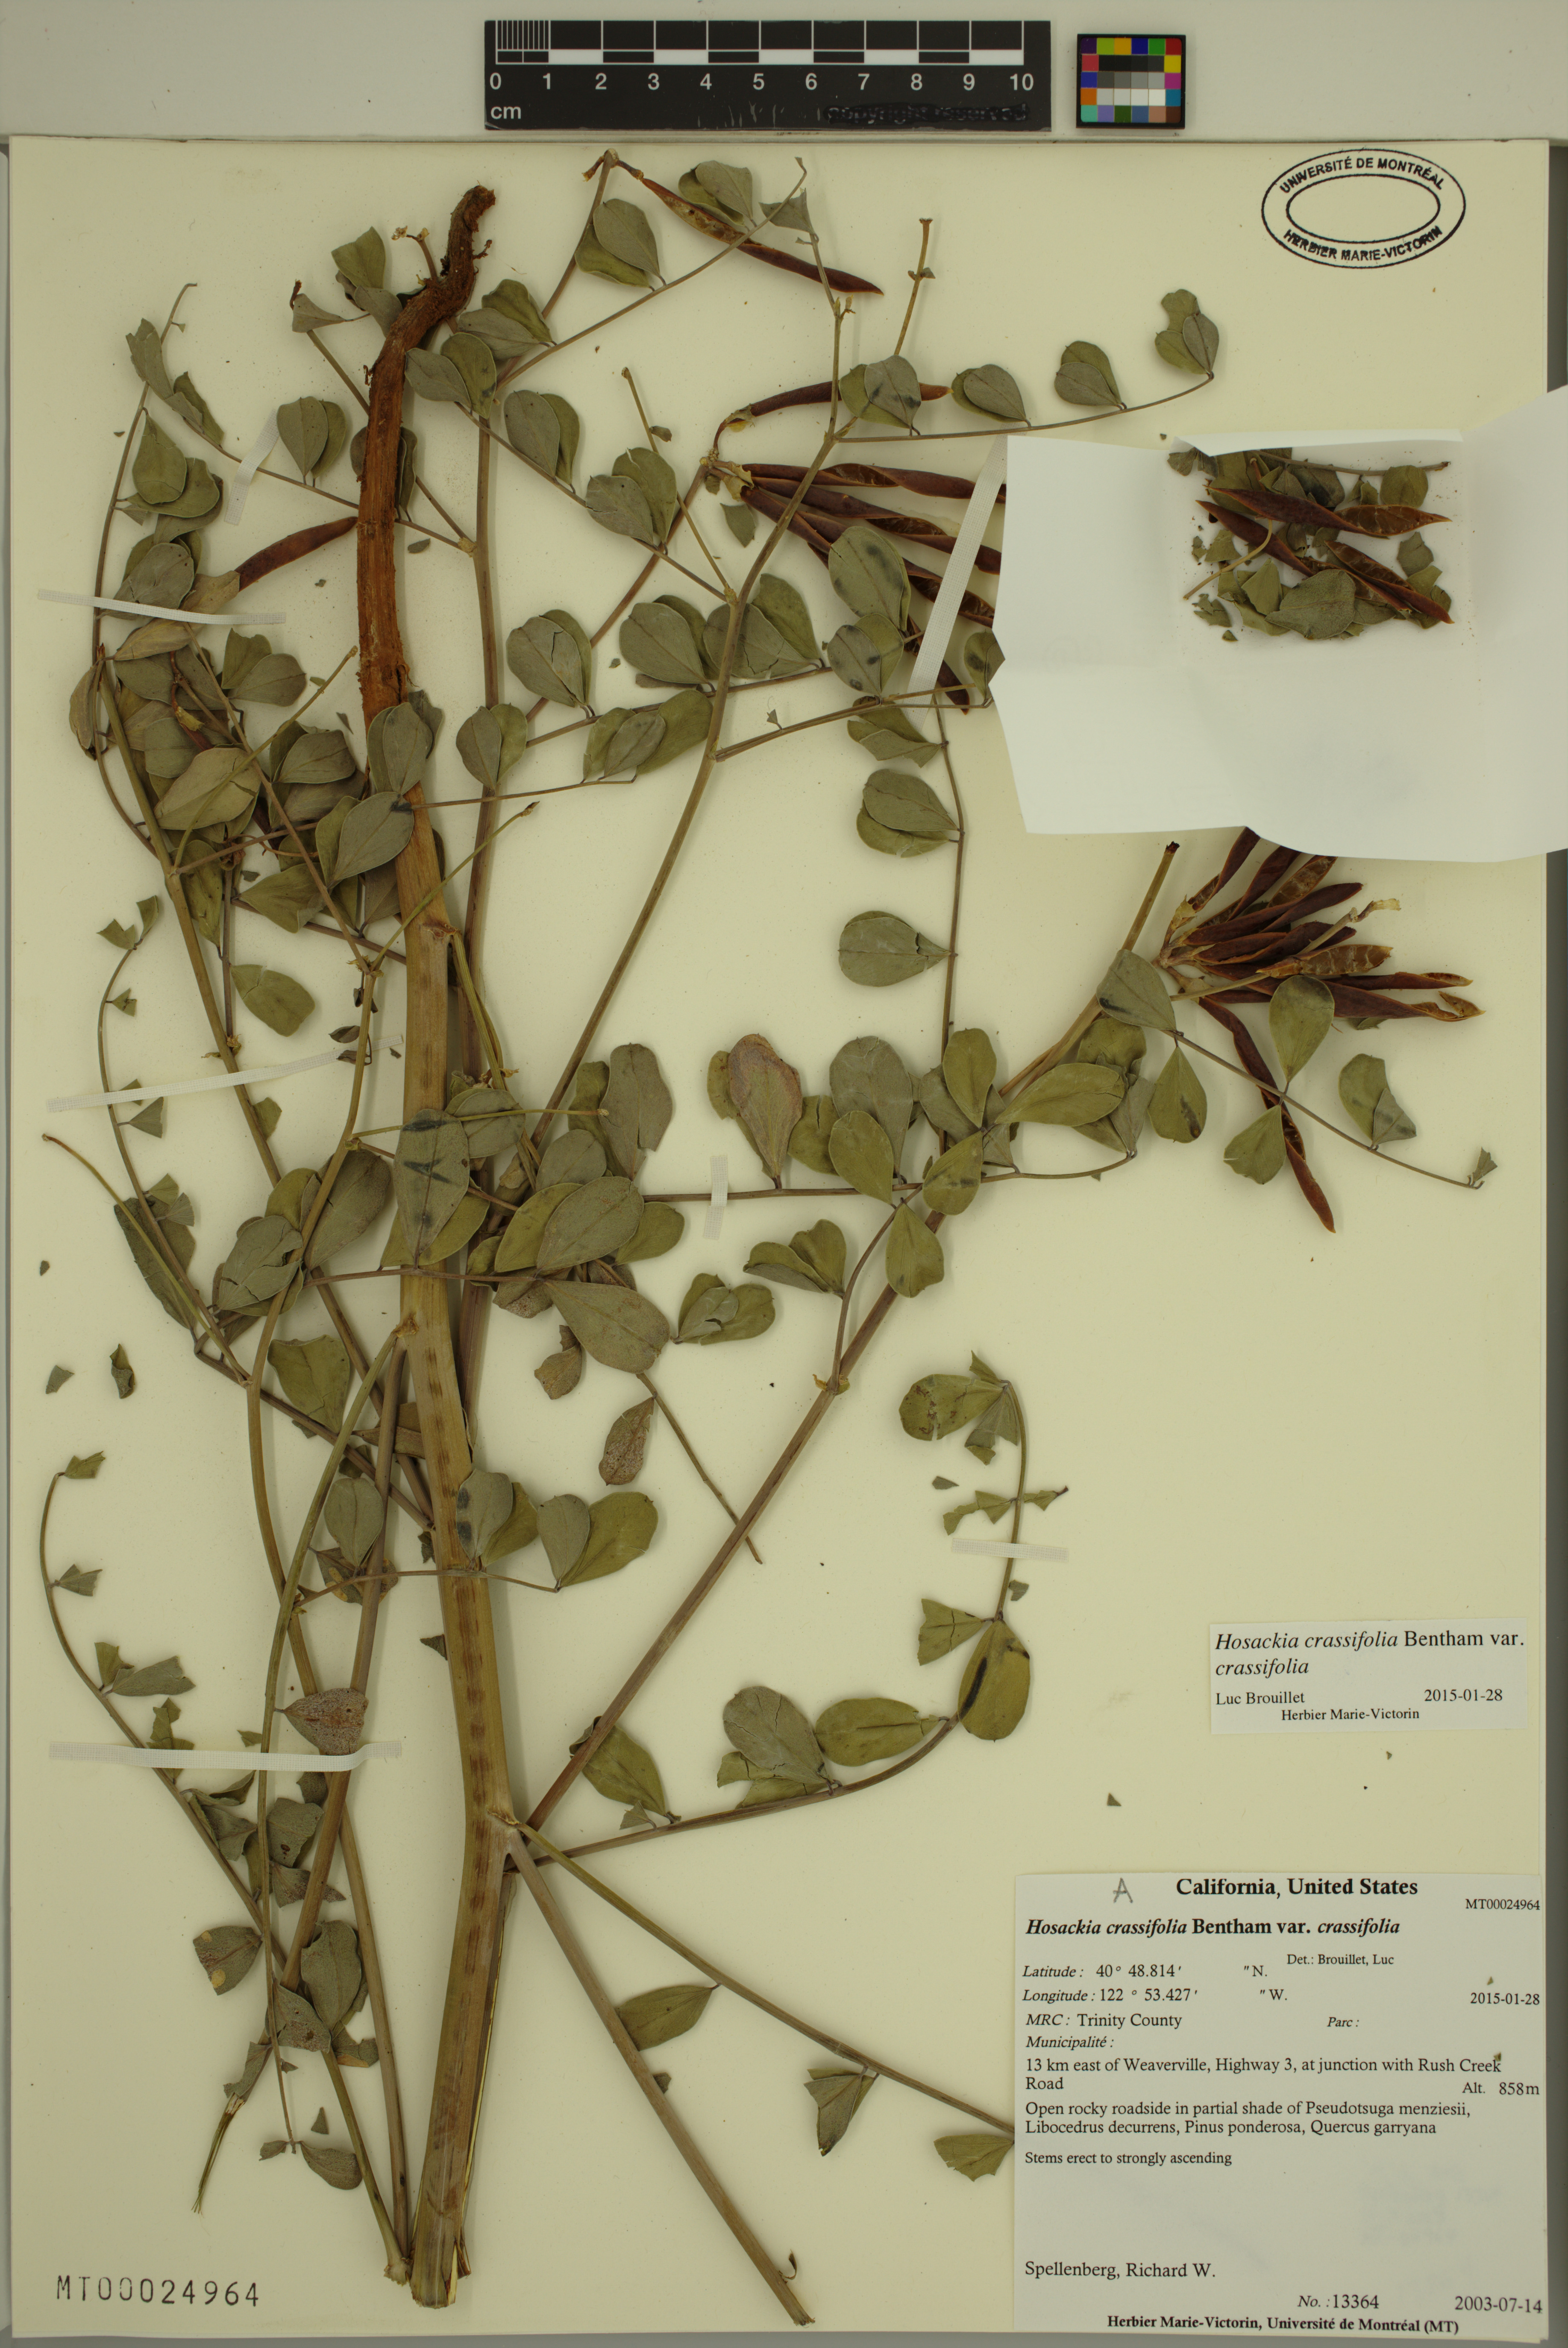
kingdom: Plantae
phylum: Tracheophyta
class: Magnoliopsida
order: Fabales
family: Fabaceae
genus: Hosackia
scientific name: Hosackia crassifolia
